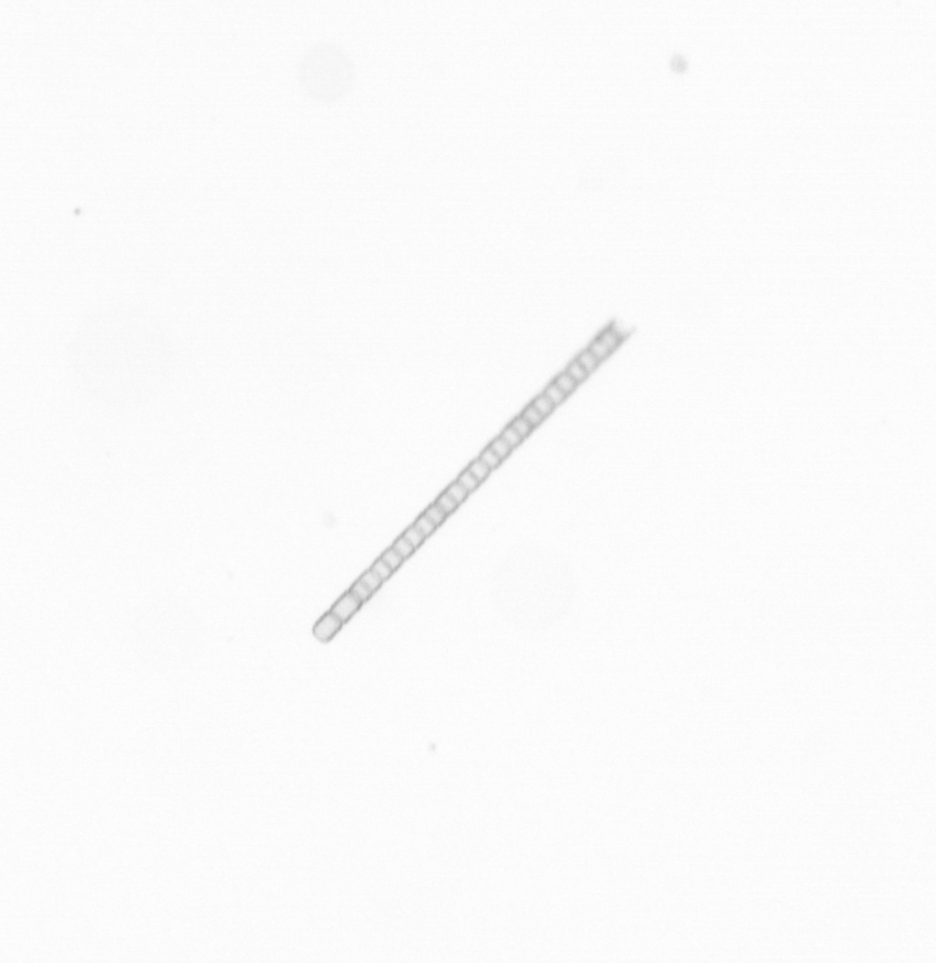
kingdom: Chromista
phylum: Ochrophyta
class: Bacillariophyceae
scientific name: Bacillariophyceae
